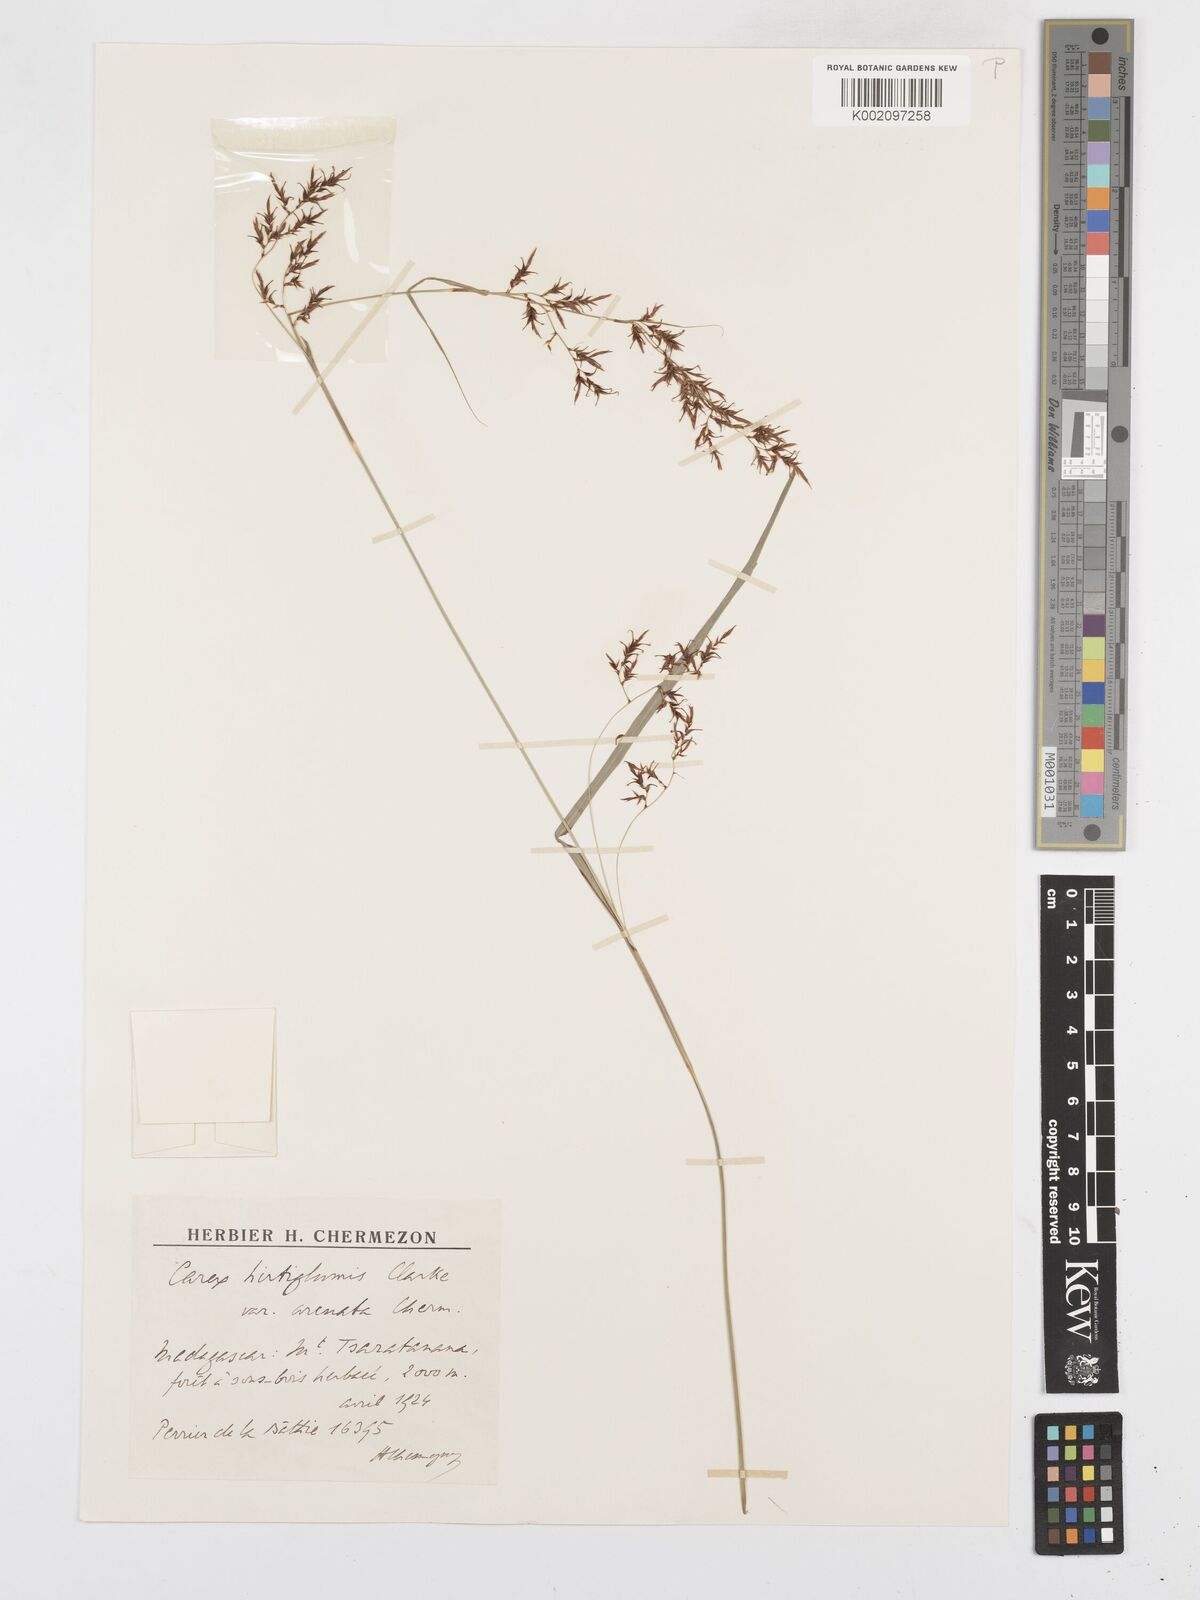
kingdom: Plantae
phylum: Tracheophyta
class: Liliopsida
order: Poales
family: Cyperaceae
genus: Carex
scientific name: Carex hirtigluma
